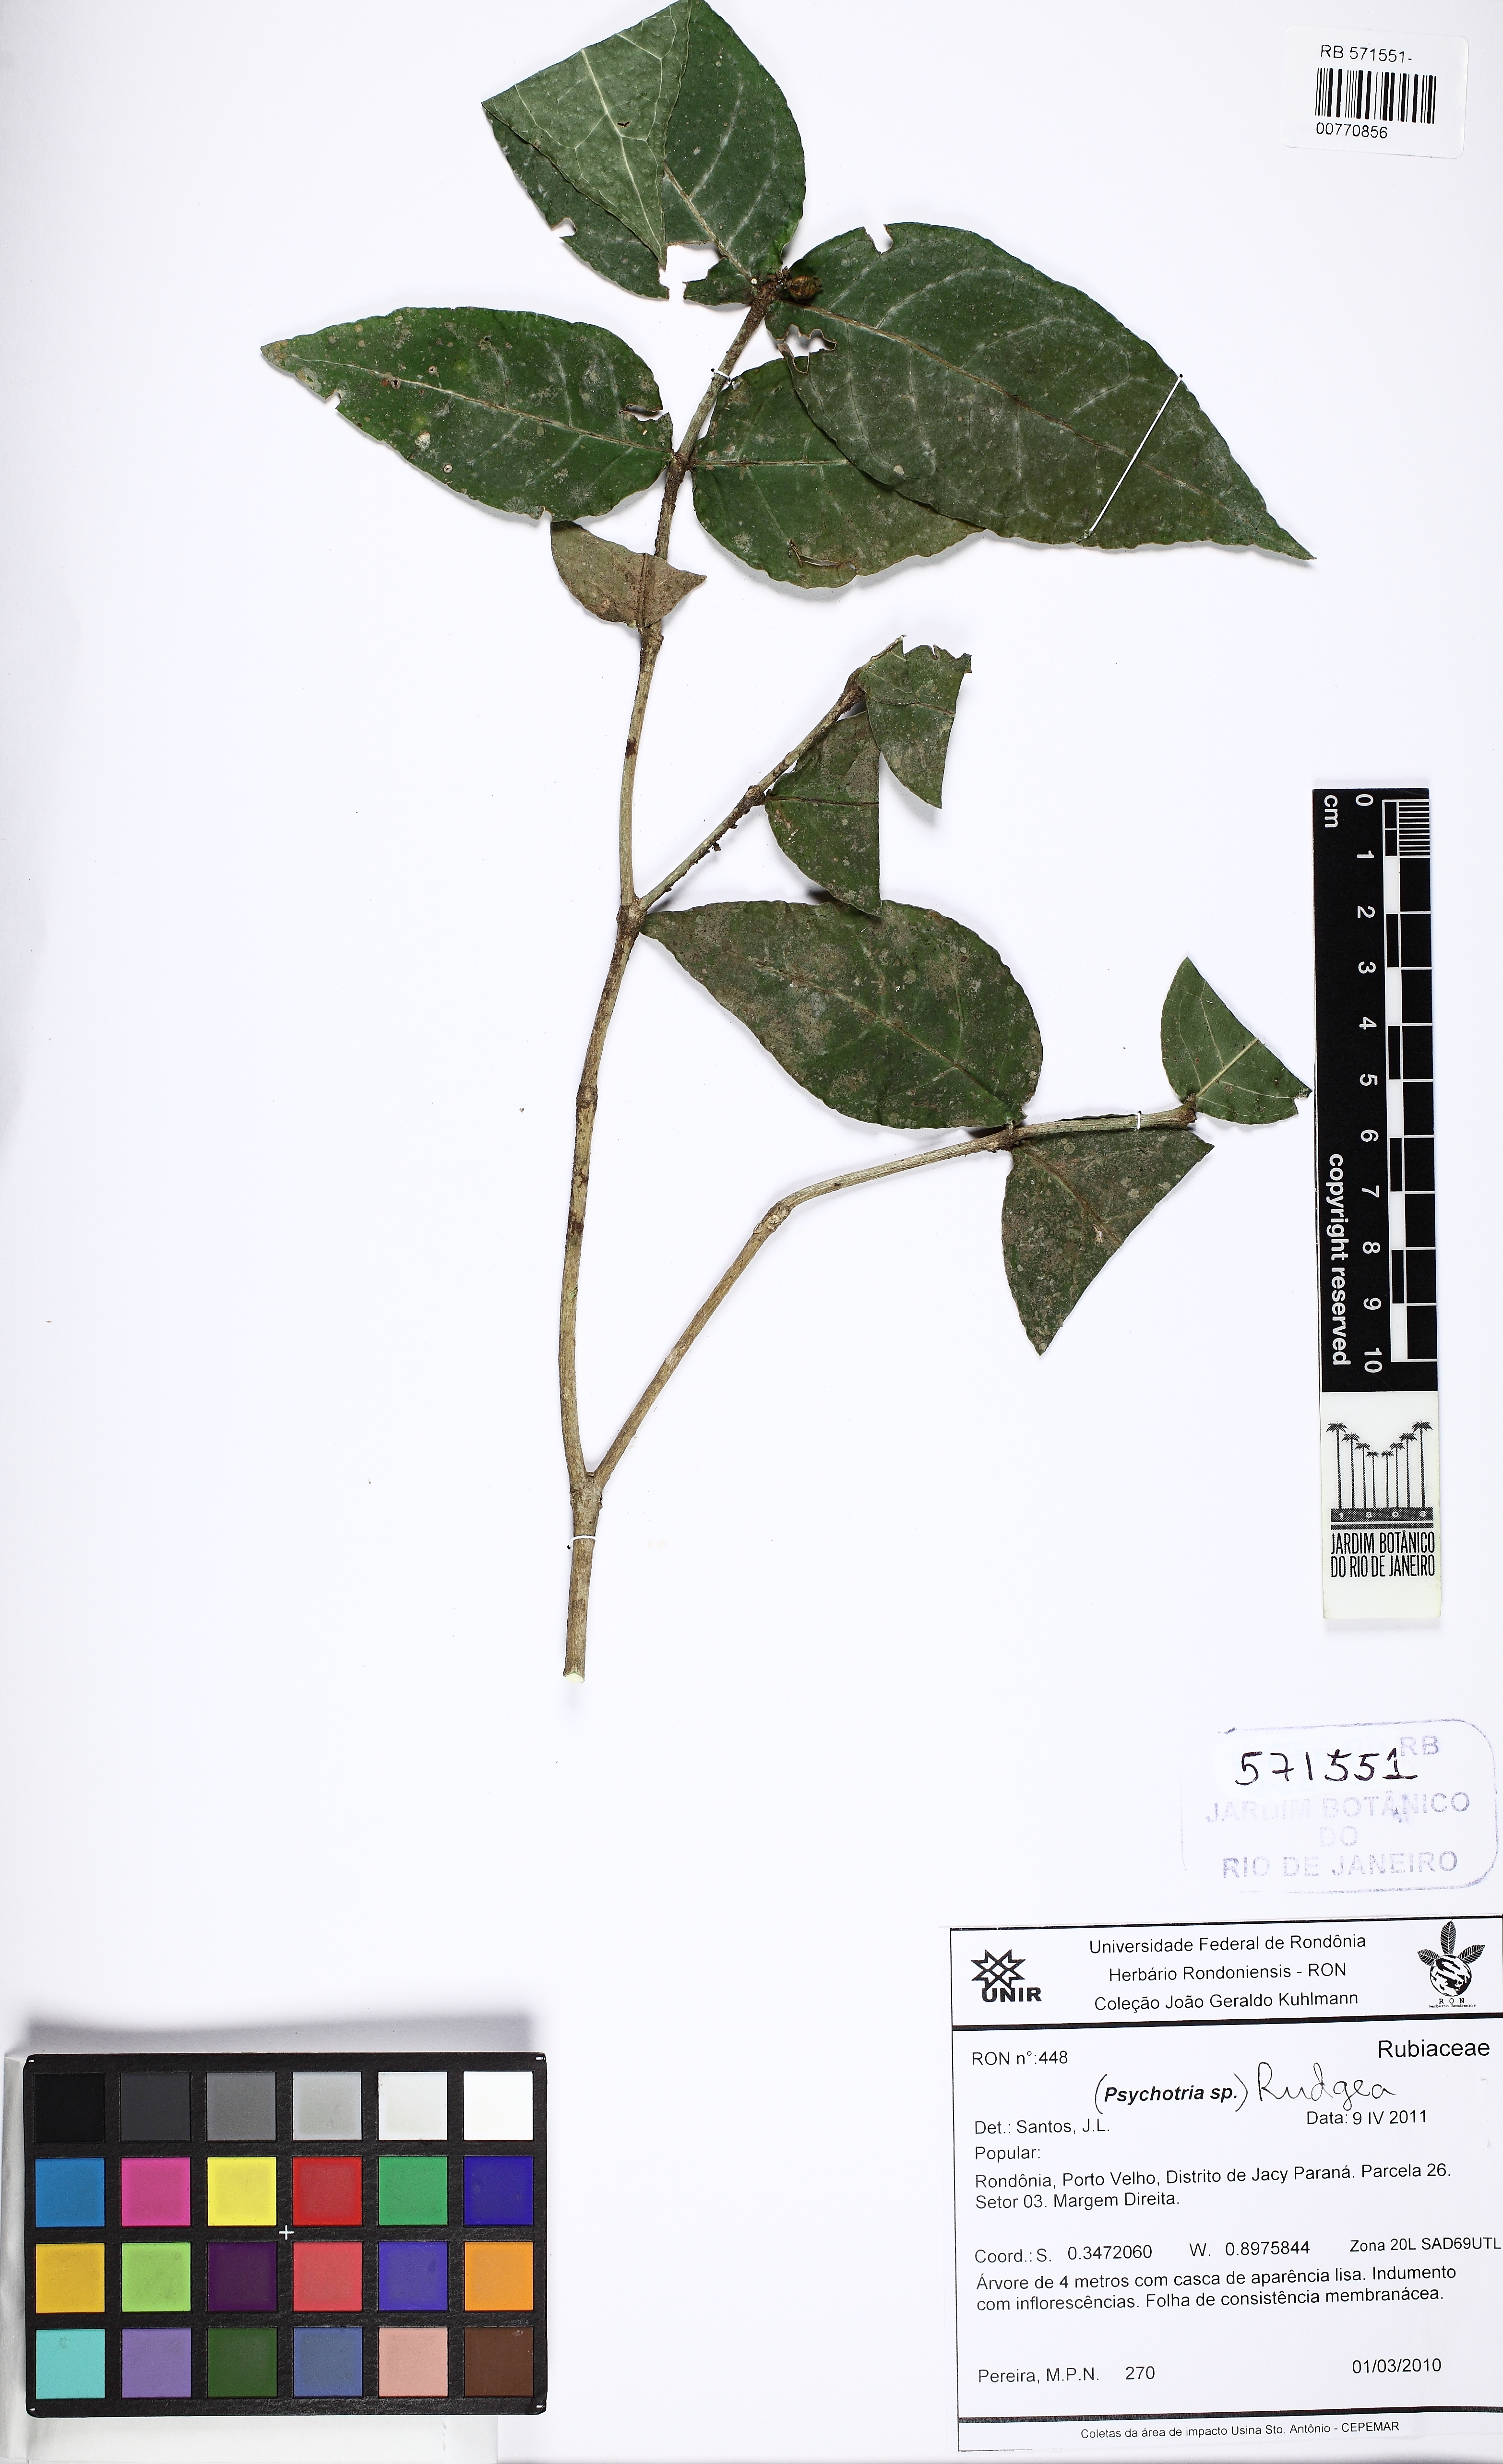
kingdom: Plantae
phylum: Tracheophyta
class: Magnoliopsida
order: Gentianales
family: Rubiaceae
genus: Rudgea
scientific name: Rudgea
